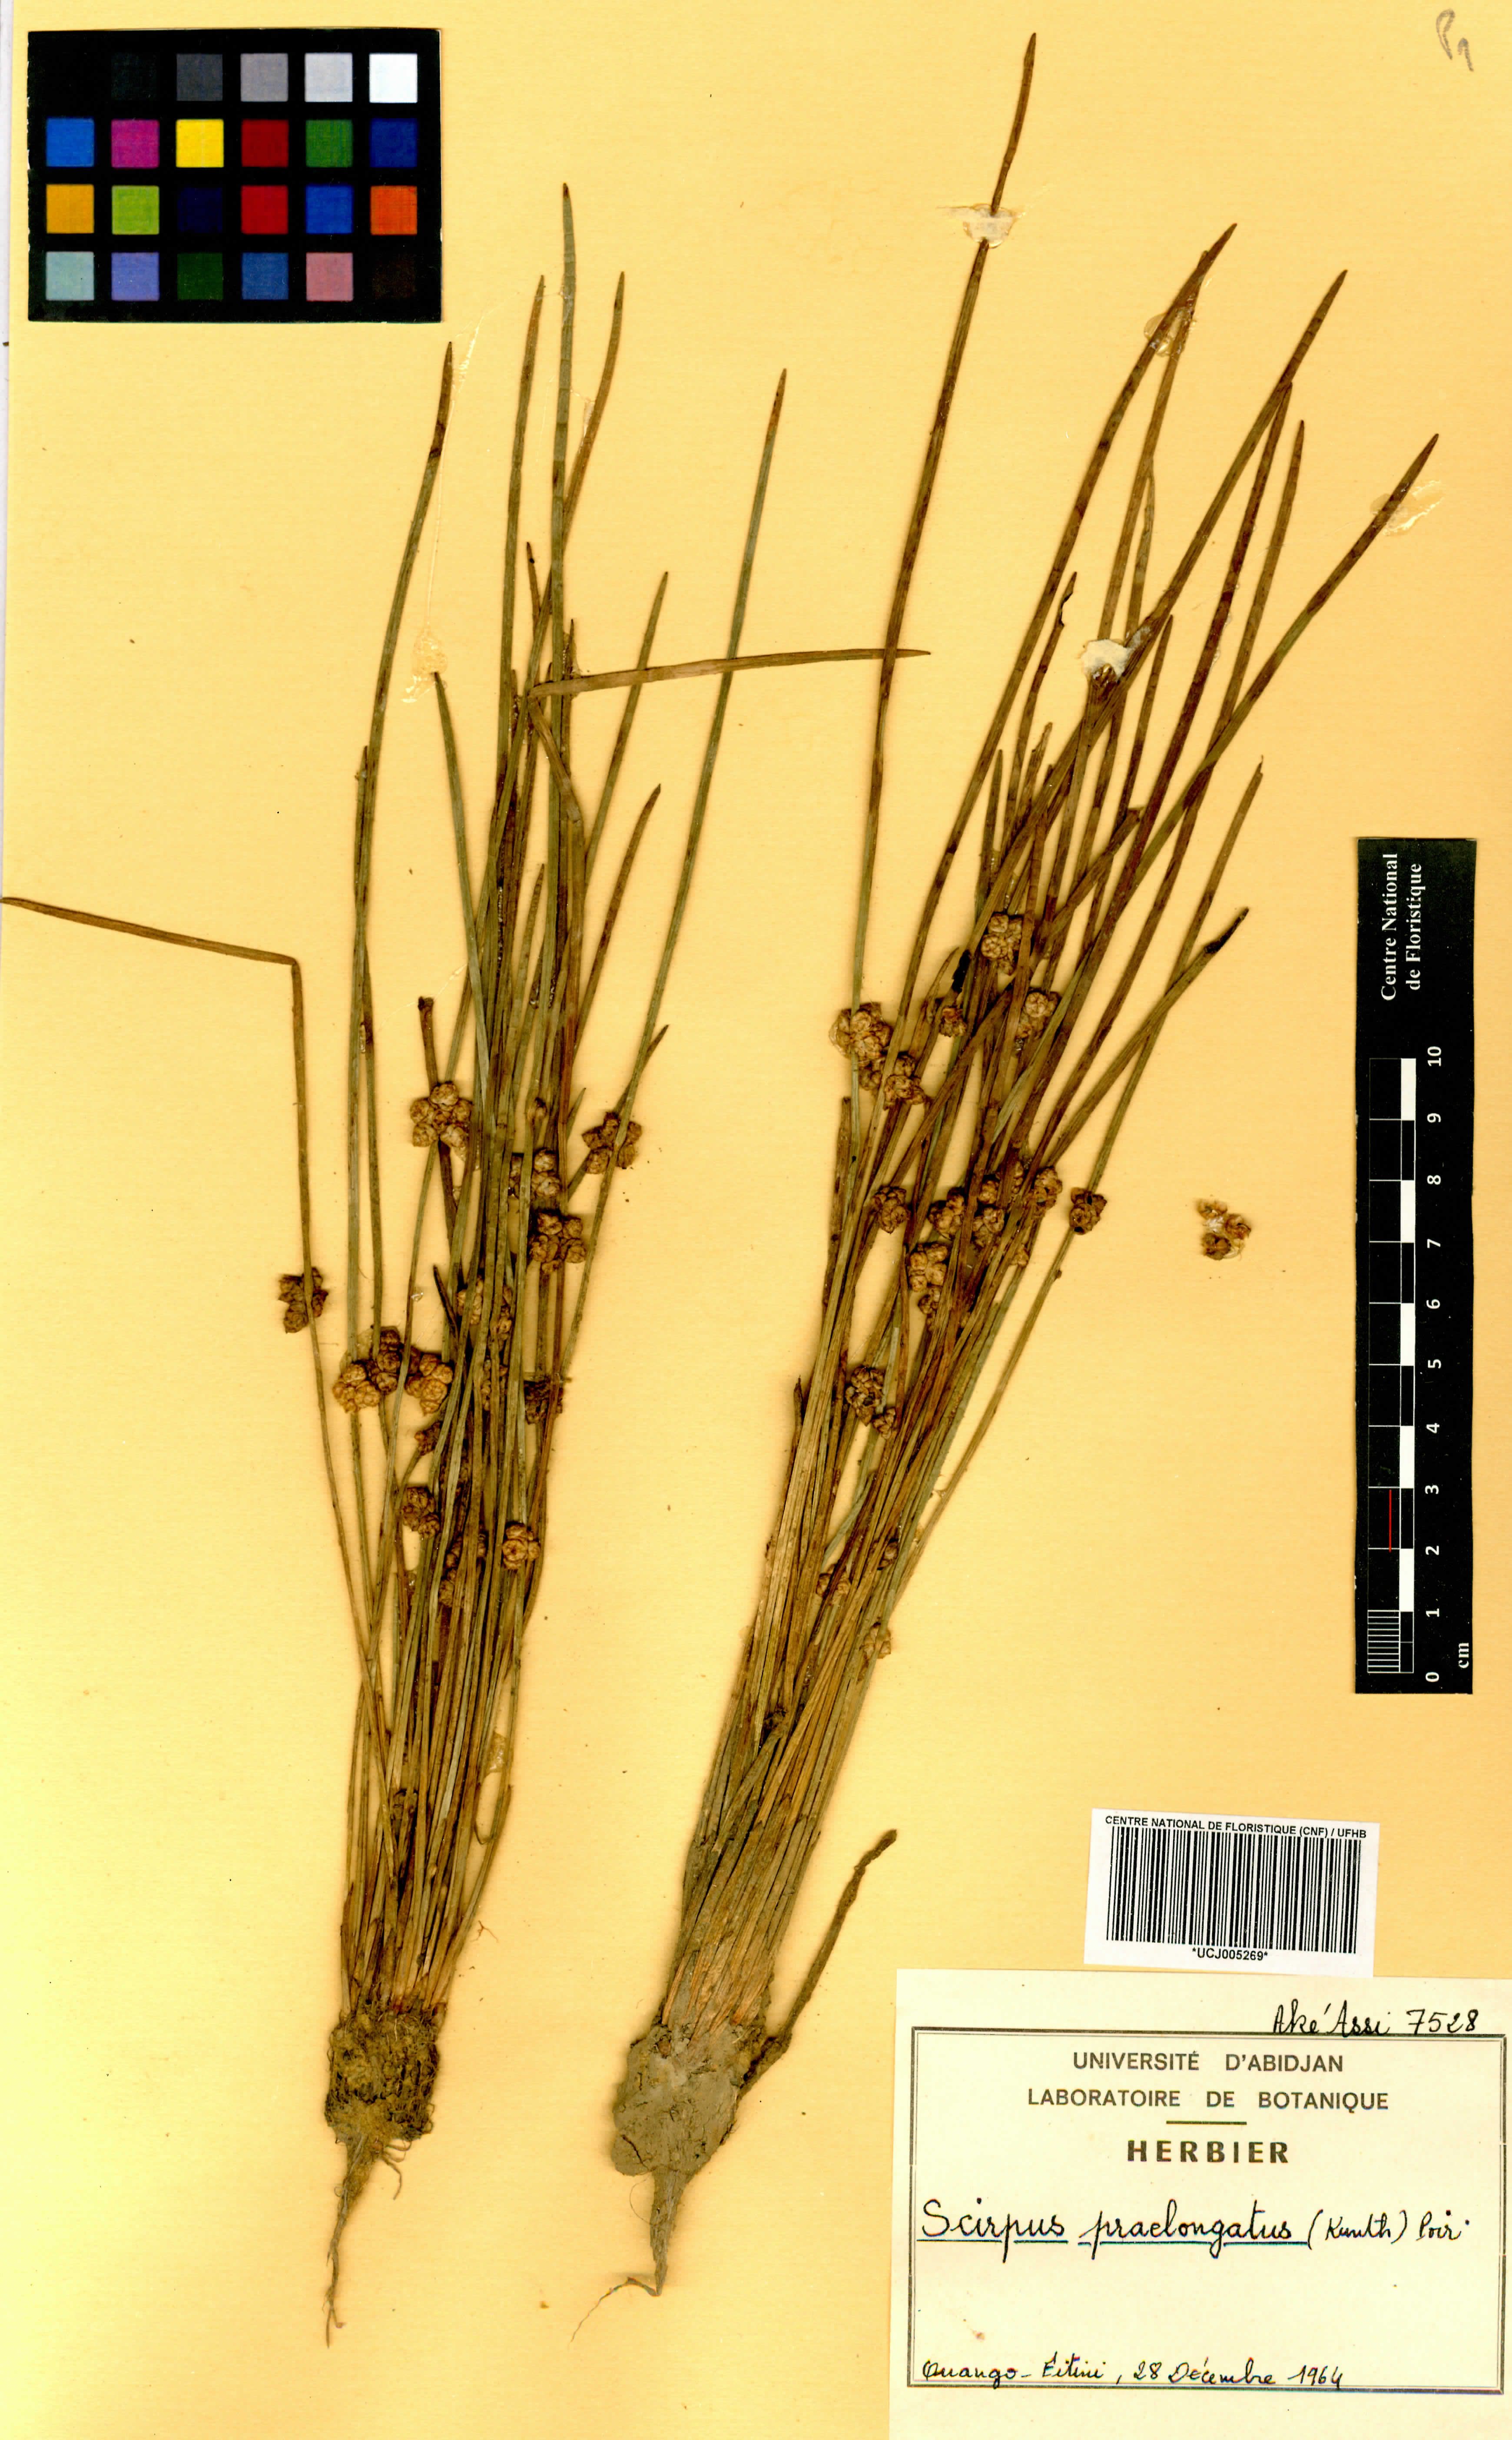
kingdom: Plantae
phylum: Tracheophyta
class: Liliopsida
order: Poales
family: Cyperaceae
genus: Schoenoplectiella
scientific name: Schoenoplectiella praelongata
